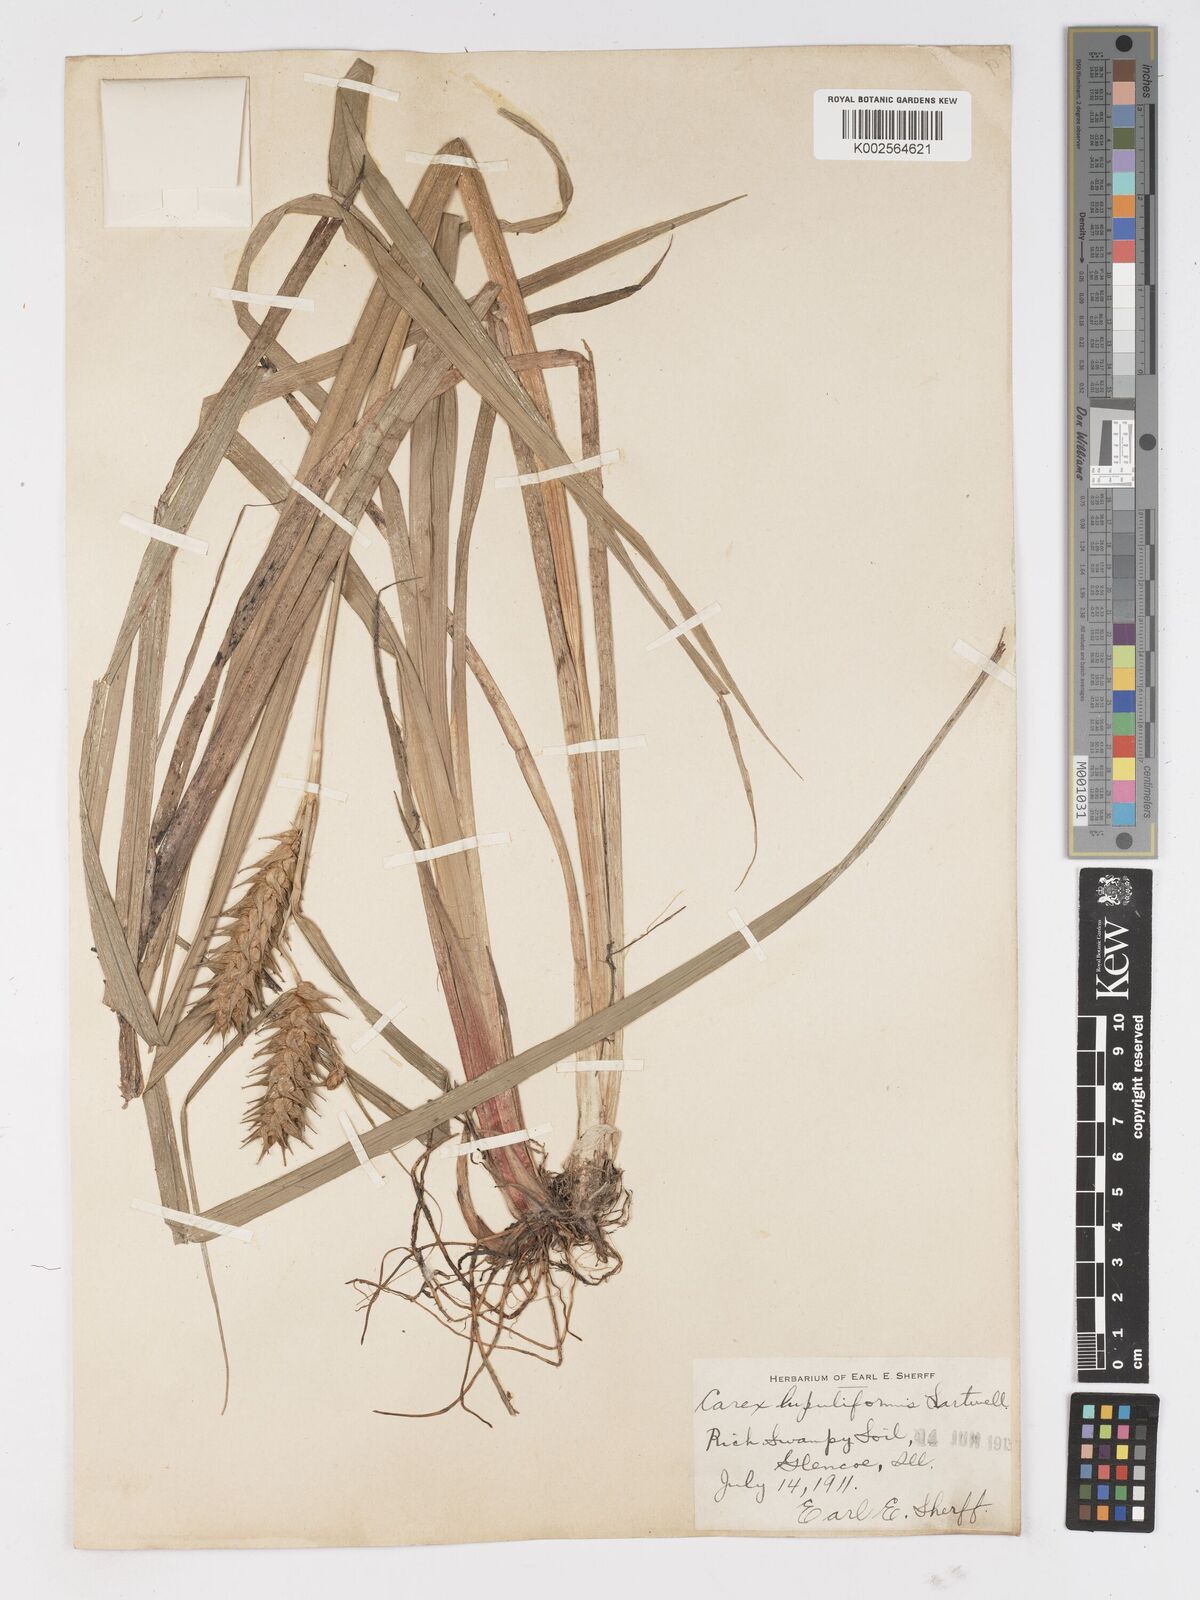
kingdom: Plantae
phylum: Tracheophyta
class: Liliopsida
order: Poales
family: Cyperaceae
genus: Carex
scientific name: Carex lupuliformis
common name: False hop sedge
